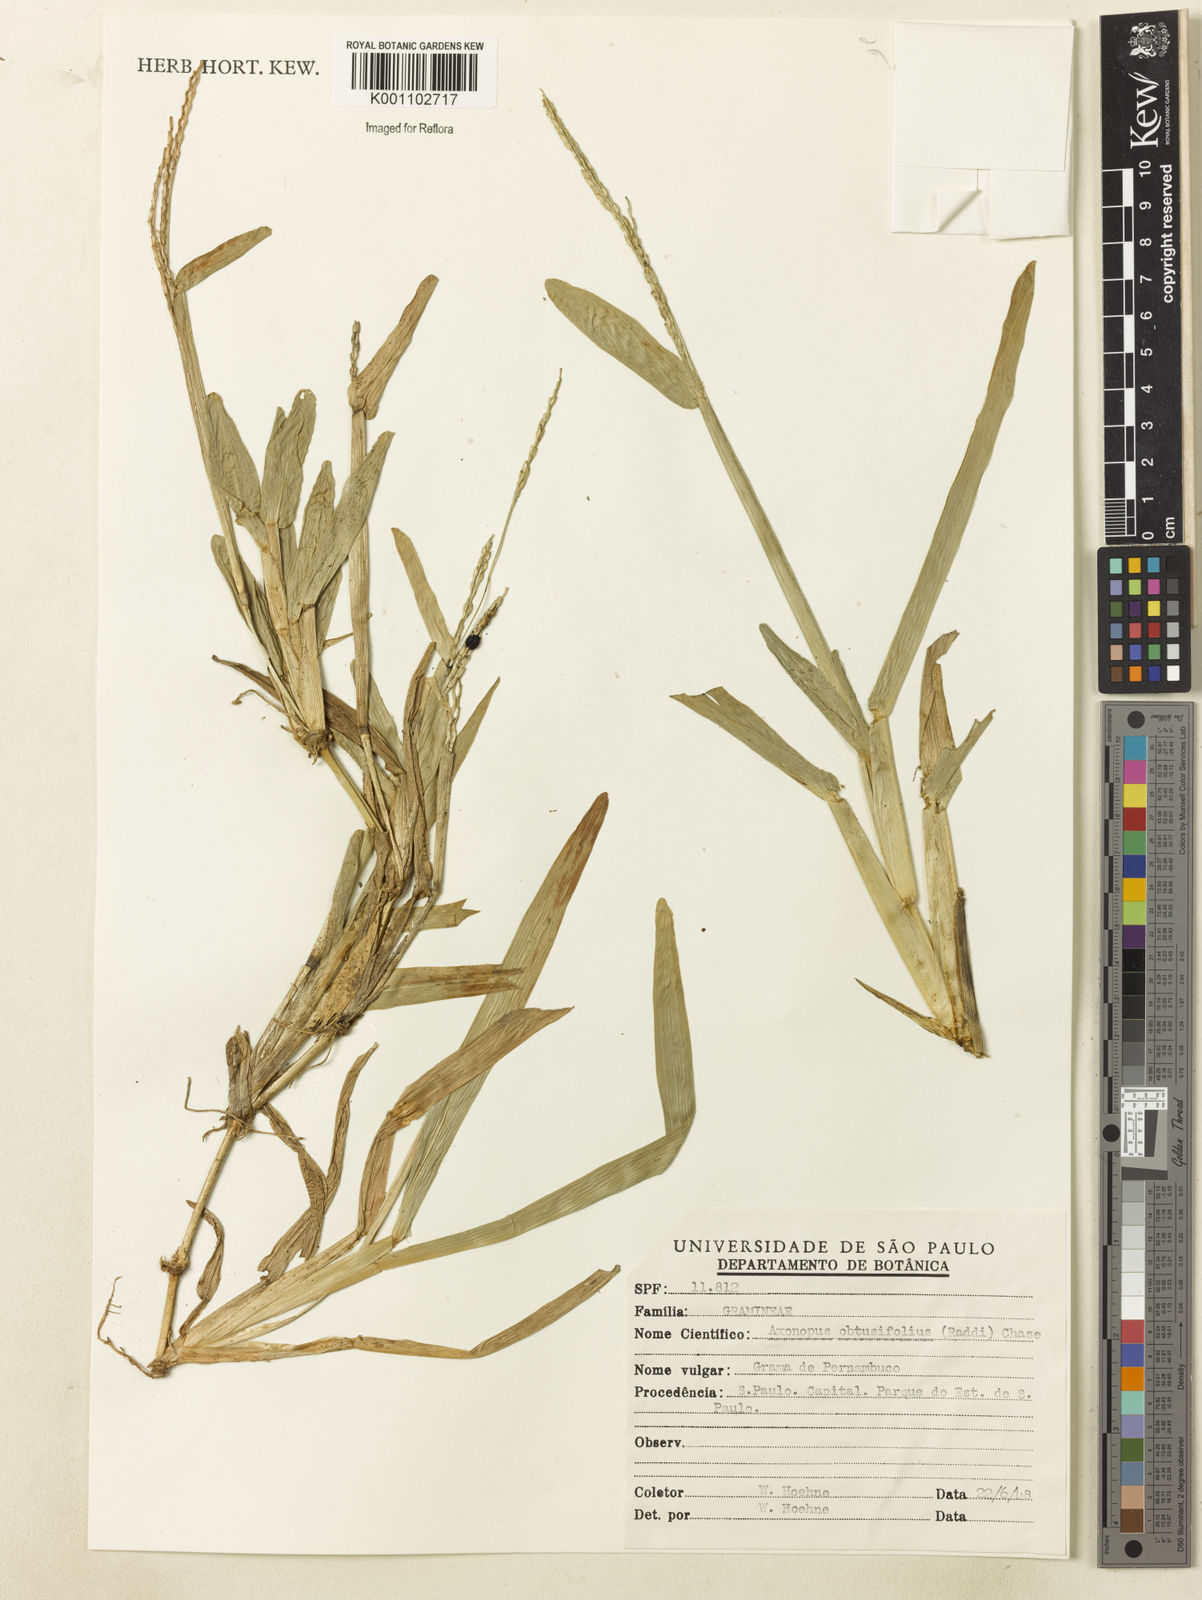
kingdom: Plantae
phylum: Tracheophyta
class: Liliopsida
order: Poales
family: Poaceae
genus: Axonopus
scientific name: Axonopus furcatus
